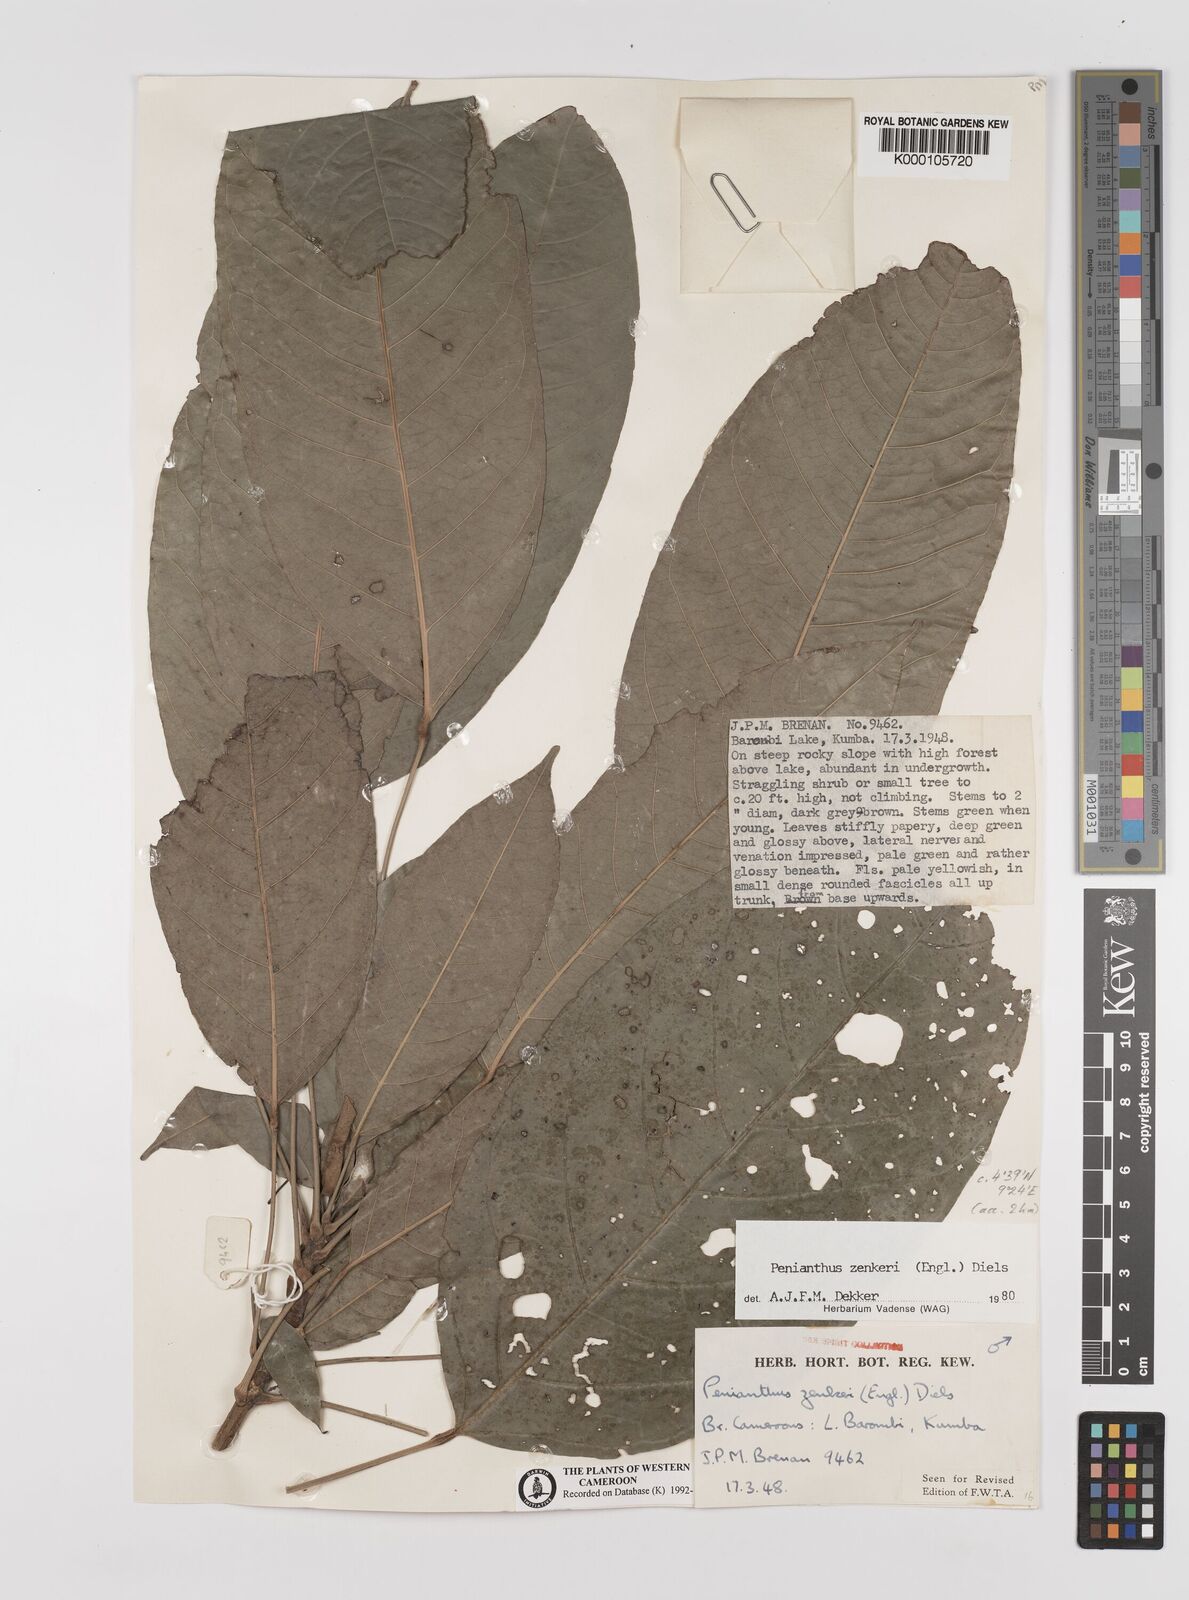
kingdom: Plantae
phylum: Tracheophyta
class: Magnoliopsida
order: Ranunculales
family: Menispermaceae
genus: Penianthus
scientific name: Penianthus zenkeri
